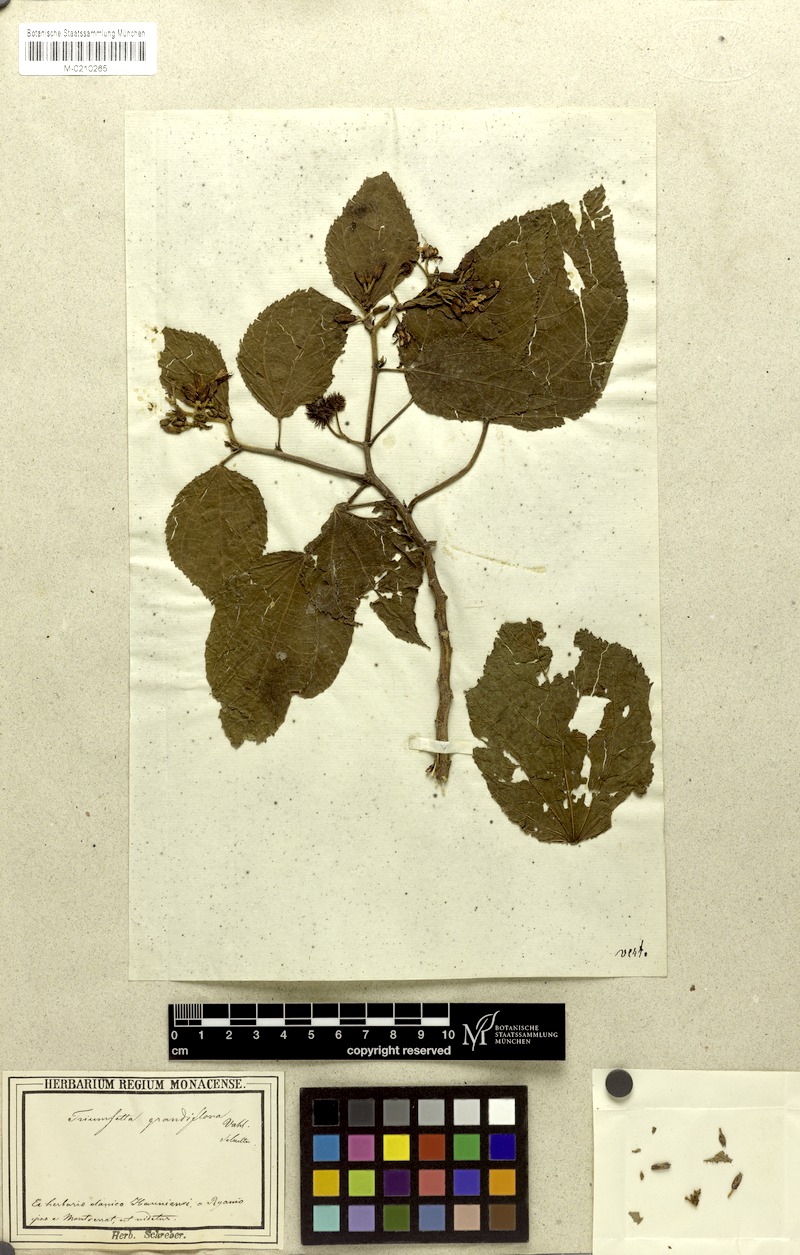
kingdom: Plantae
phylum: Tracheophyta
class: Magnoliopsida
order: Malvales
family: Malvaceae
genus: Triumfetta
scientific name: Triumfetta grandiflora
